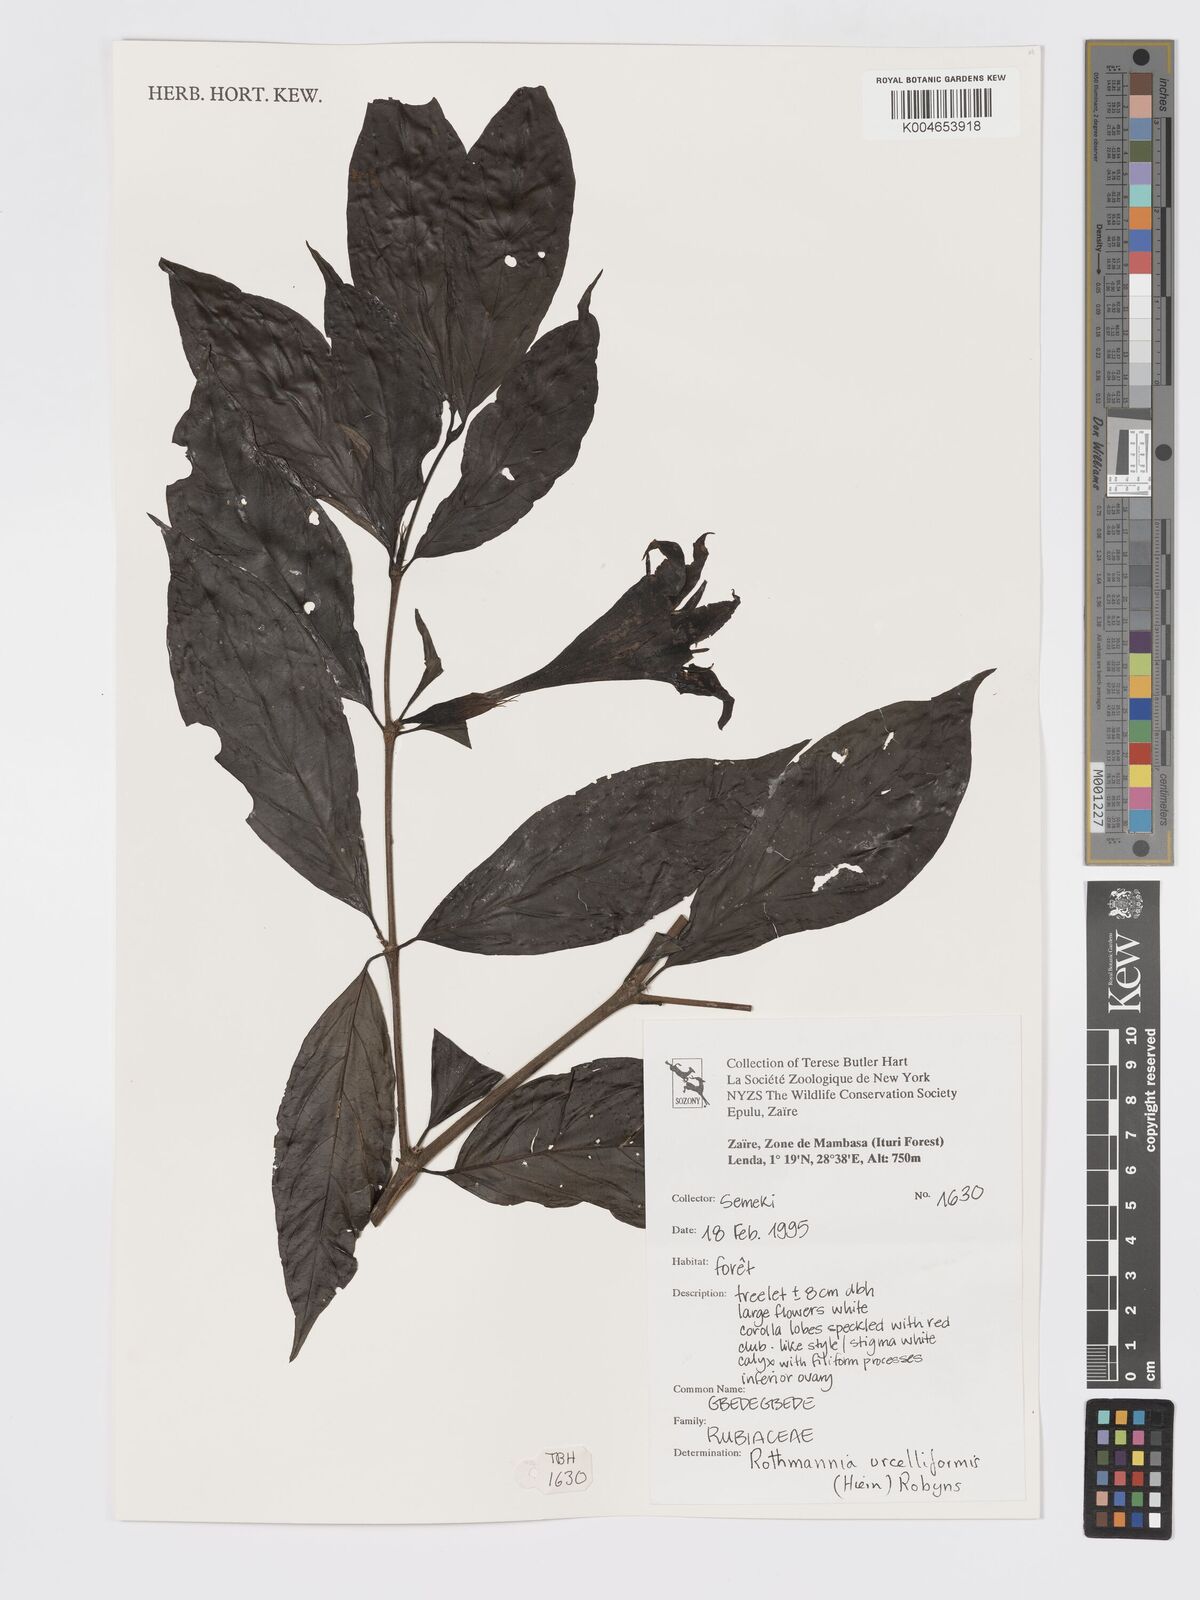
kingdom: Plantae
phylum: Tracheophyta
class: Magnoliopsida
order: Gentianales
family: Rubiaceae
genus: Rothmannia
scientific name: Rothmannia urcelliformis
